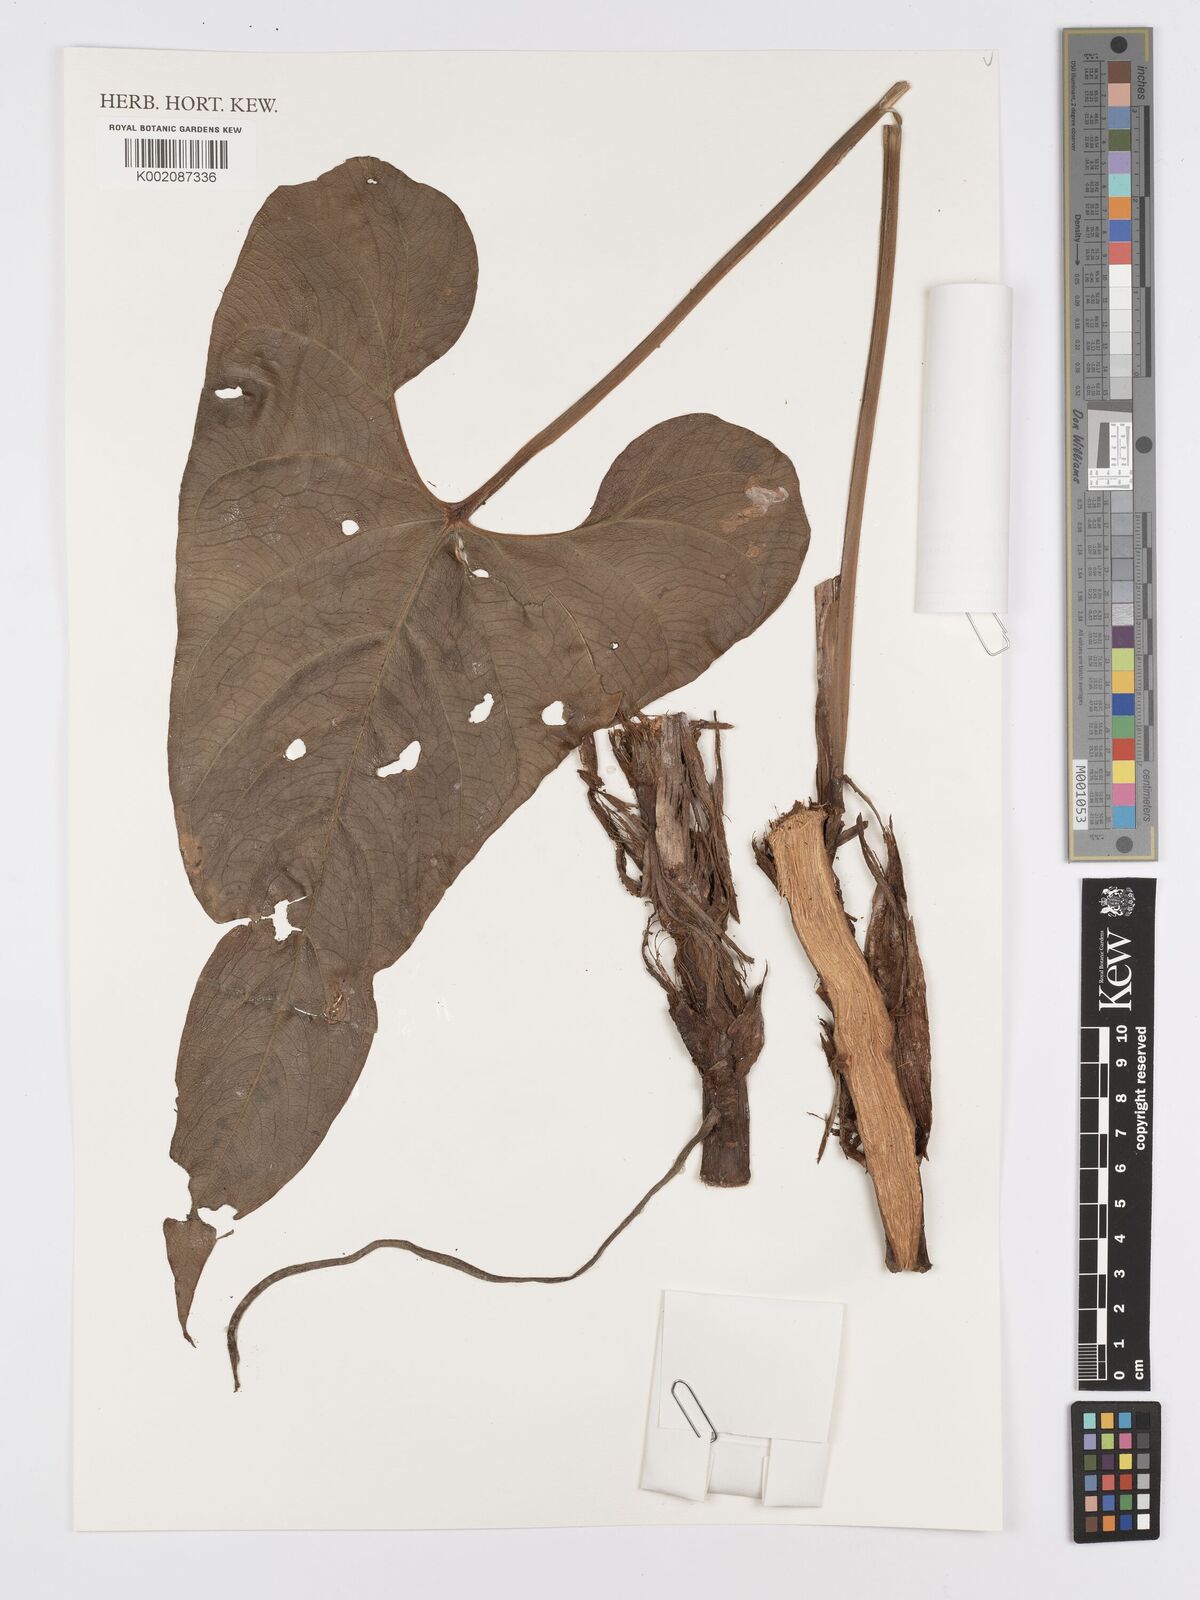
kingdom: Plantae
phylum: Tracheophyta
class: Liliopsida
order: Alismatales
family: Araceae
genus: Anthurium
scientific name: Anthurium
